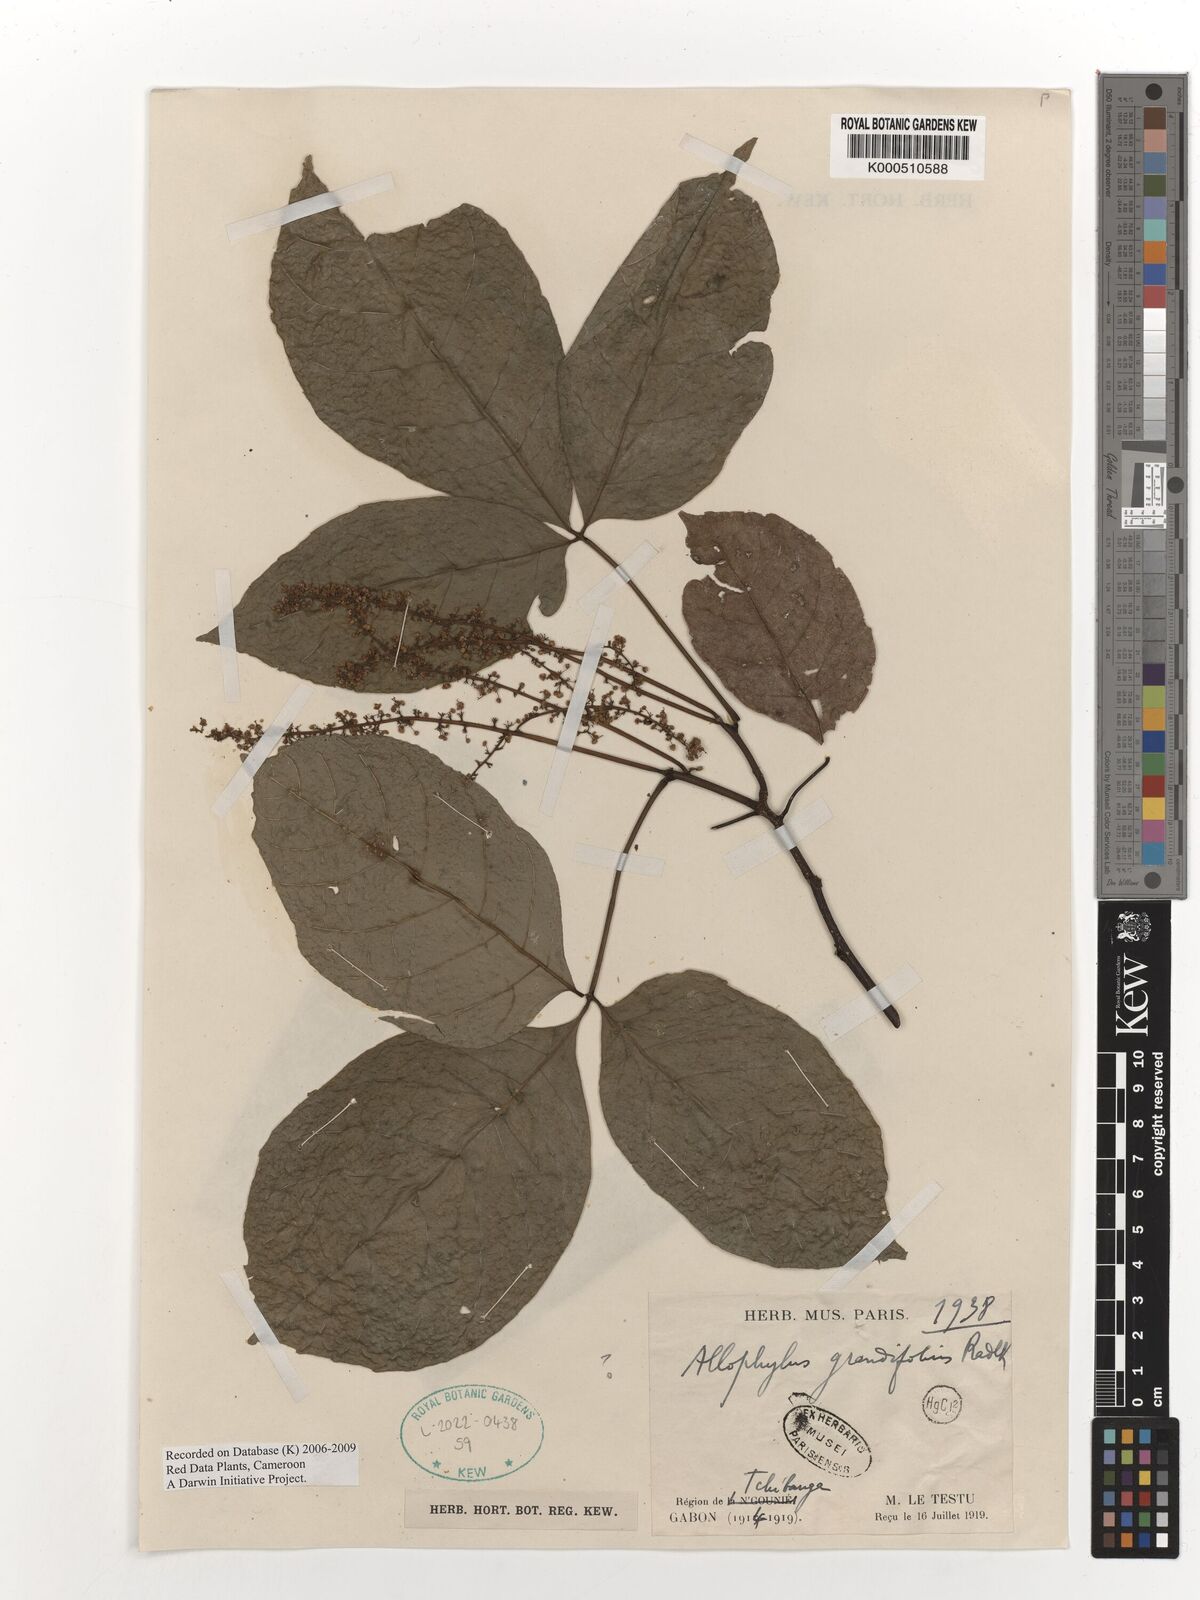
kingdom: Plantae
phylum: Tracheophyta
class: Magnoliopsida
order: Sapindales
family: Sapindaceae
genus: Allophylus
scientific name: Allophylus grandiflorus
